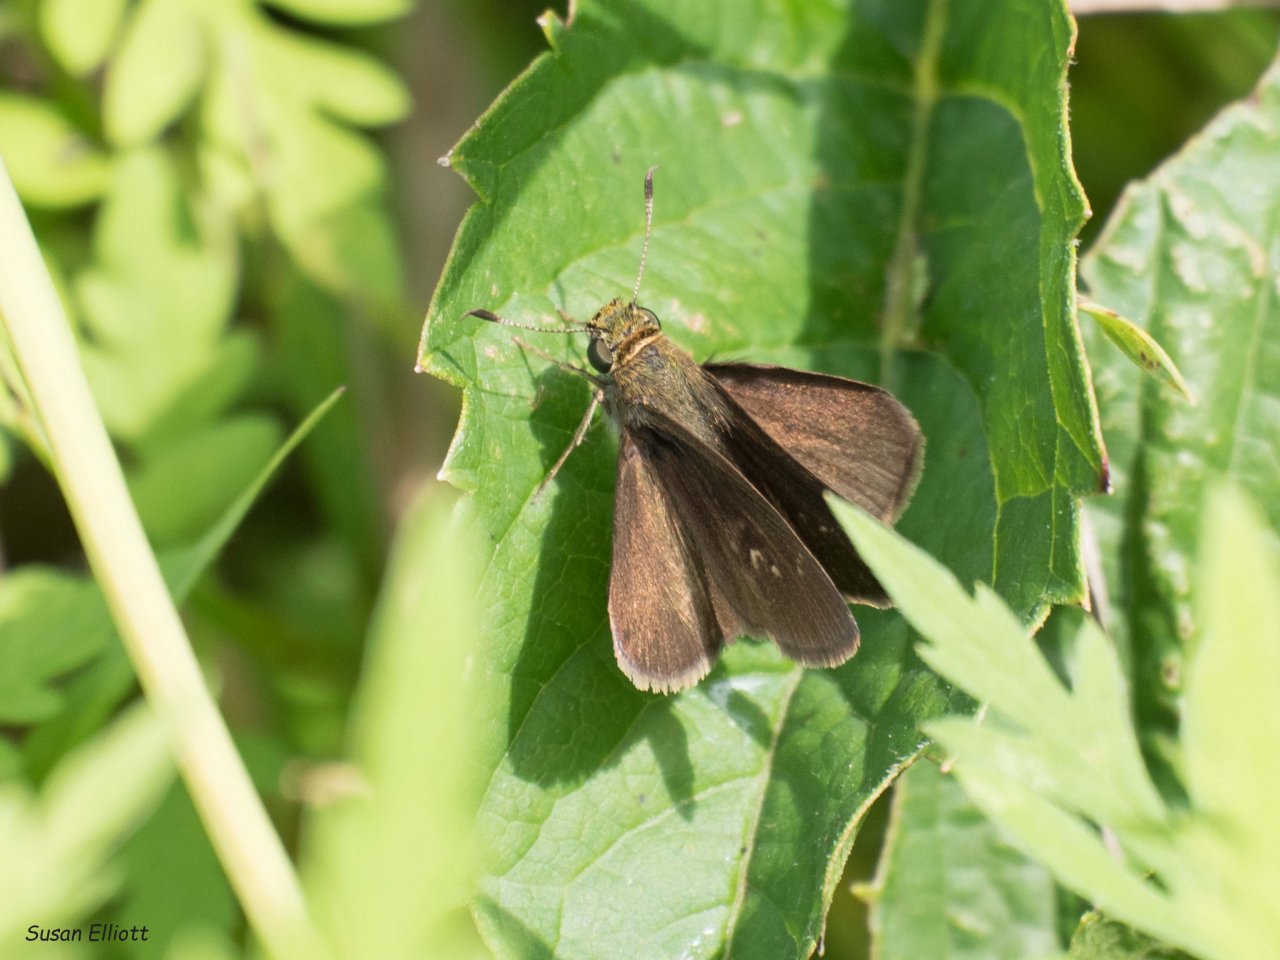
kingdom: Animalia
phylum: Arthropoda
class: Insecta
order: Lepidoptera
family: Hesperiidae
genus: Euphyes
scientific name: Euphyes vestris
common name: Dun Skipper
